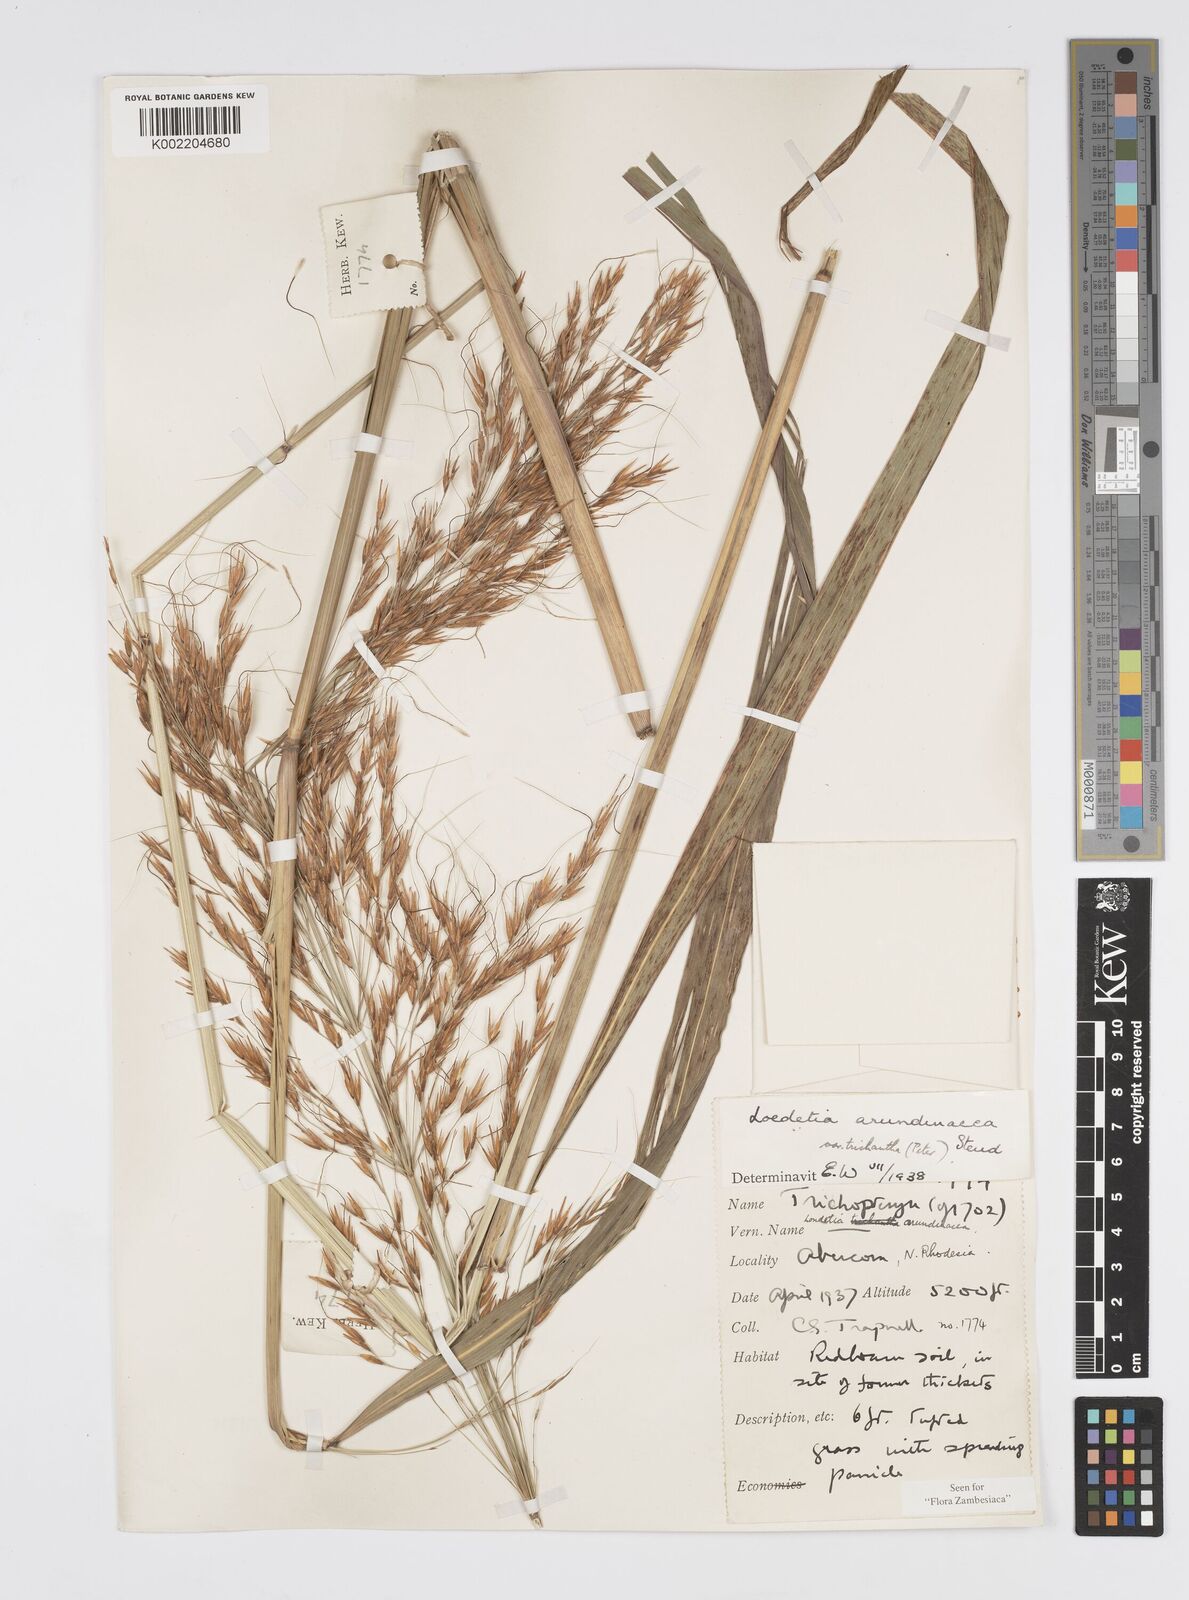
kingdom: Plantae
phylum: Tracheophyta
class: Liliopsida
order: Poales
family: Poaceae
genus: Loudetia
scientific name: Loudetia arundinacea
